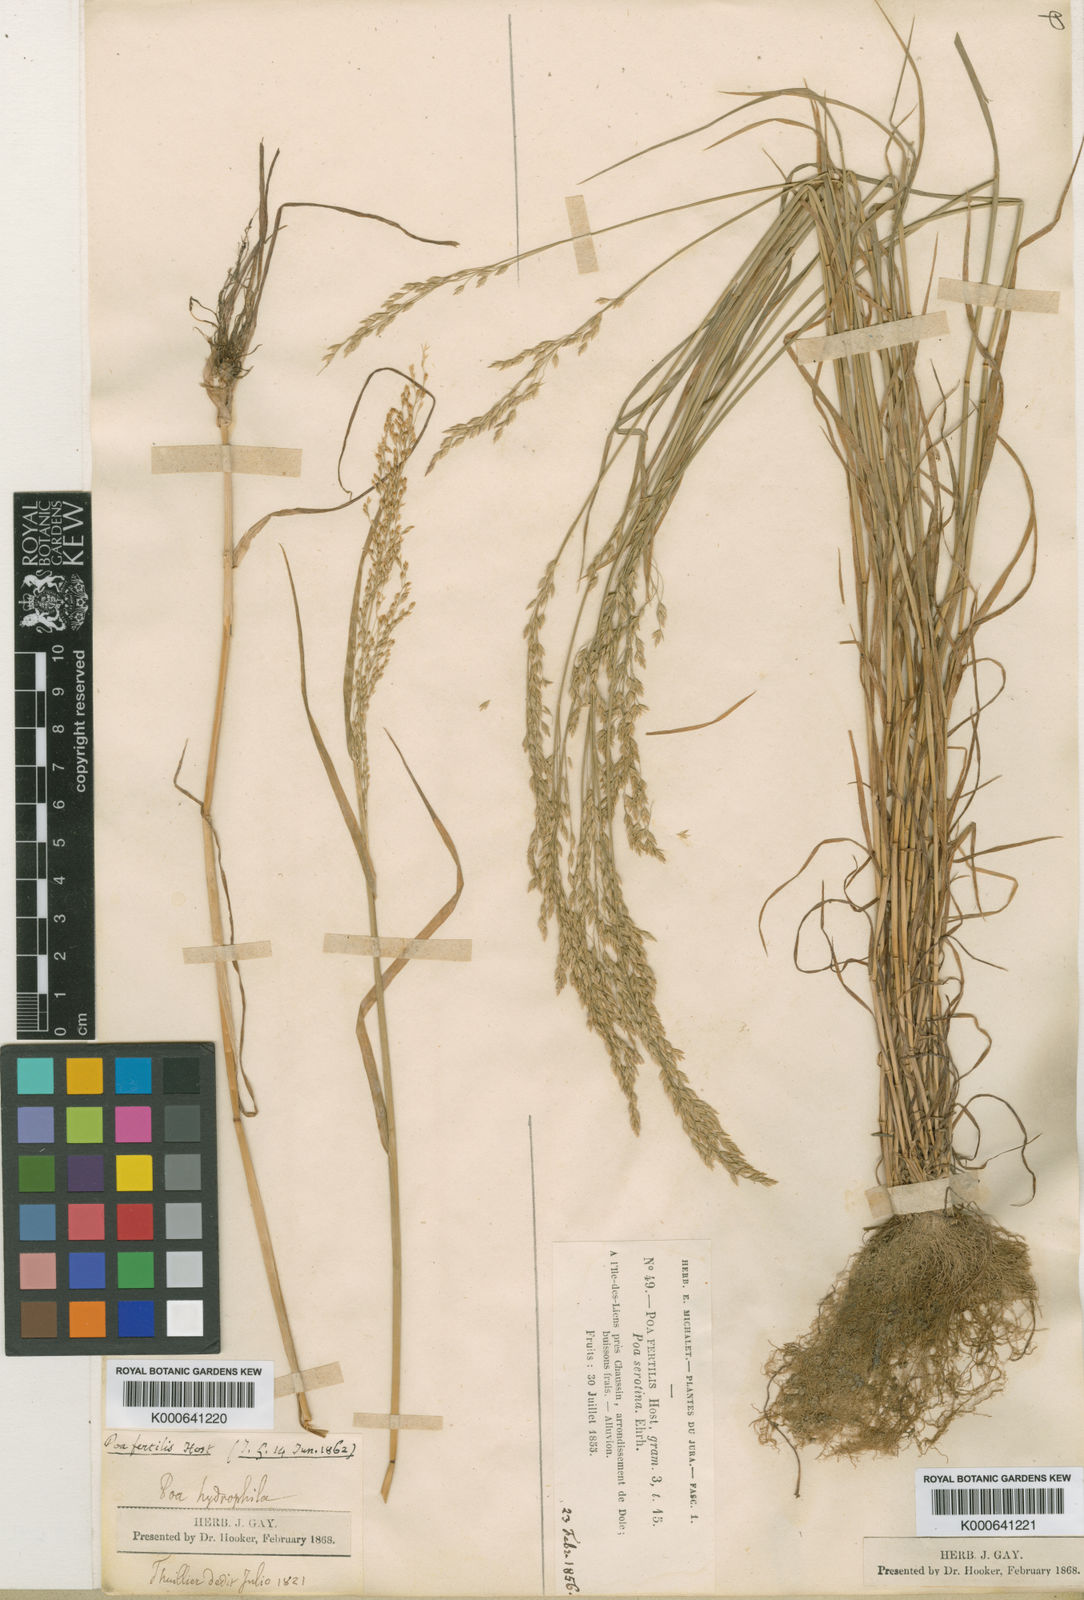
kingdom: Plantae
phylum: Tracheophyta
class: Liliopsida
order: Poales
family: Poaceae
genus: Poa
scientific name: Poa palustris
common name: Swamp meadow-grass
